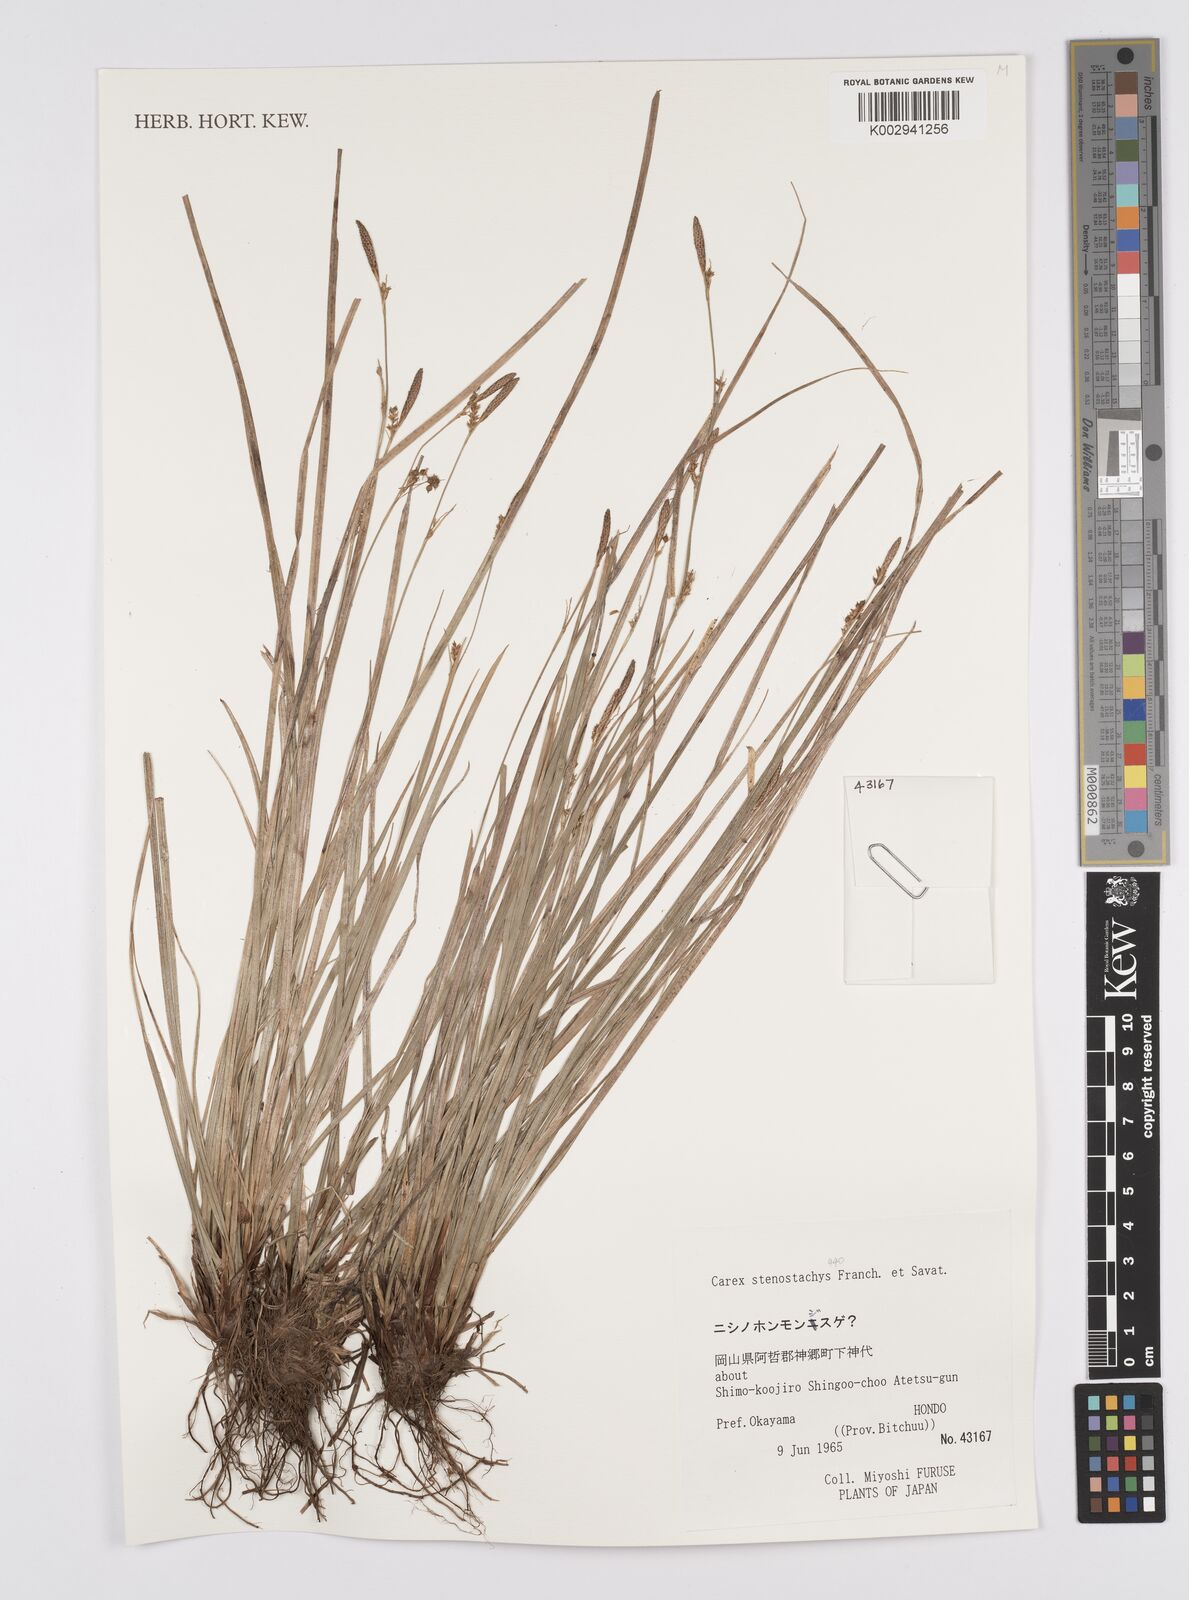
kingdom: Plantae
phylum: Tracheophyta
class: Liliopsida
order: Poales
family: Cyperaceae
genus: Carex
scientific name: Carex pisiformis
